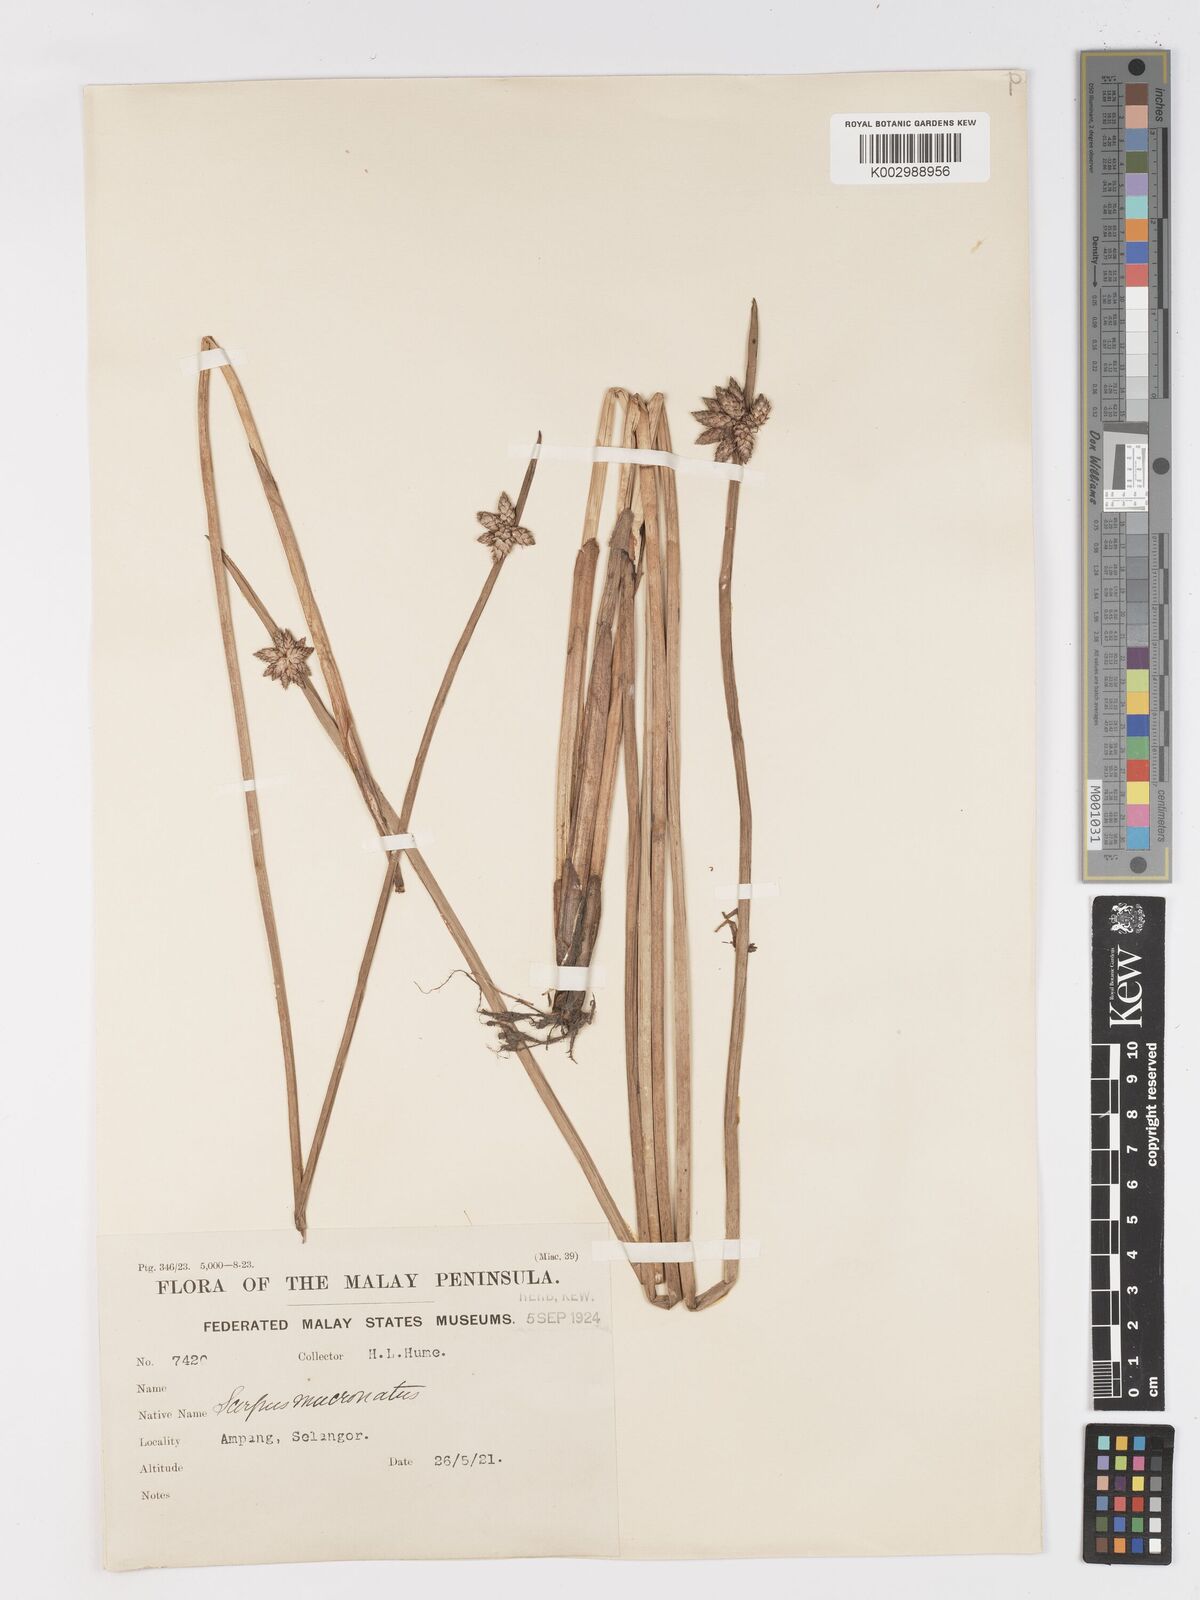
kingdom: Plantae
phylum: Tracheophyta
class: Liliopsida
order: Poales
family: Cyperaceae
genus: Schoenoplectiella
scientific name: Schoenoplectiella mucronata
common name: Bog bulrush
